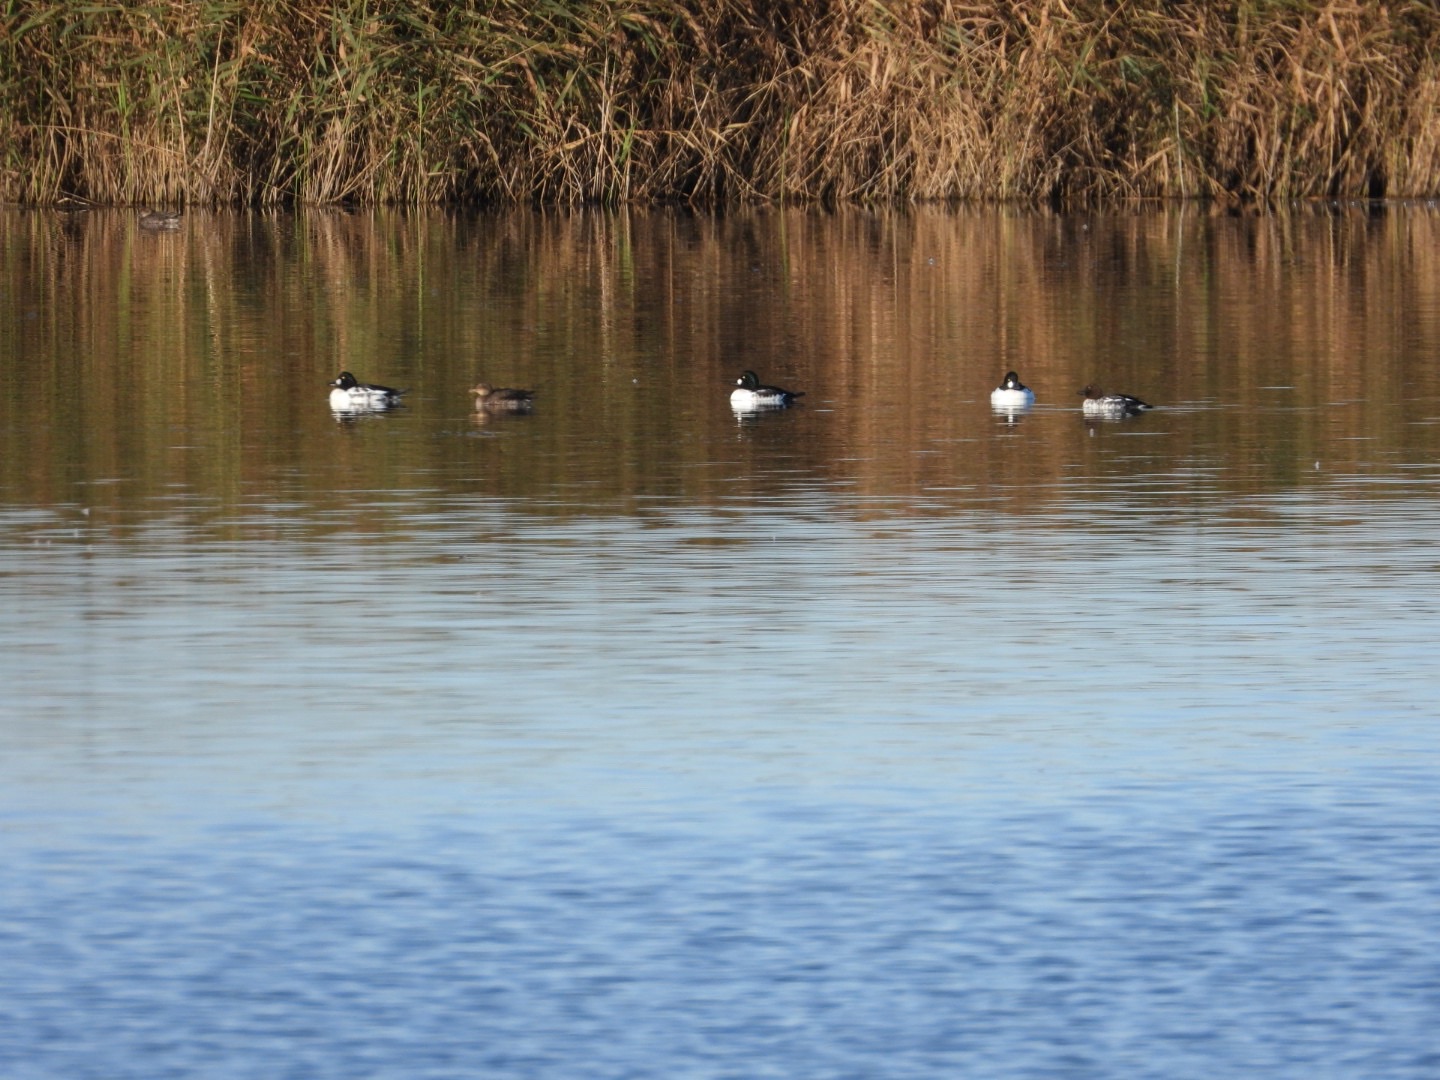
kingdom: Animalia
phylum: Chordata
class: Aves
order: Anseriformes
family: Anatidae
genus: Bucephala
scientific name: Bucephala clangula
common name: Hvinand
